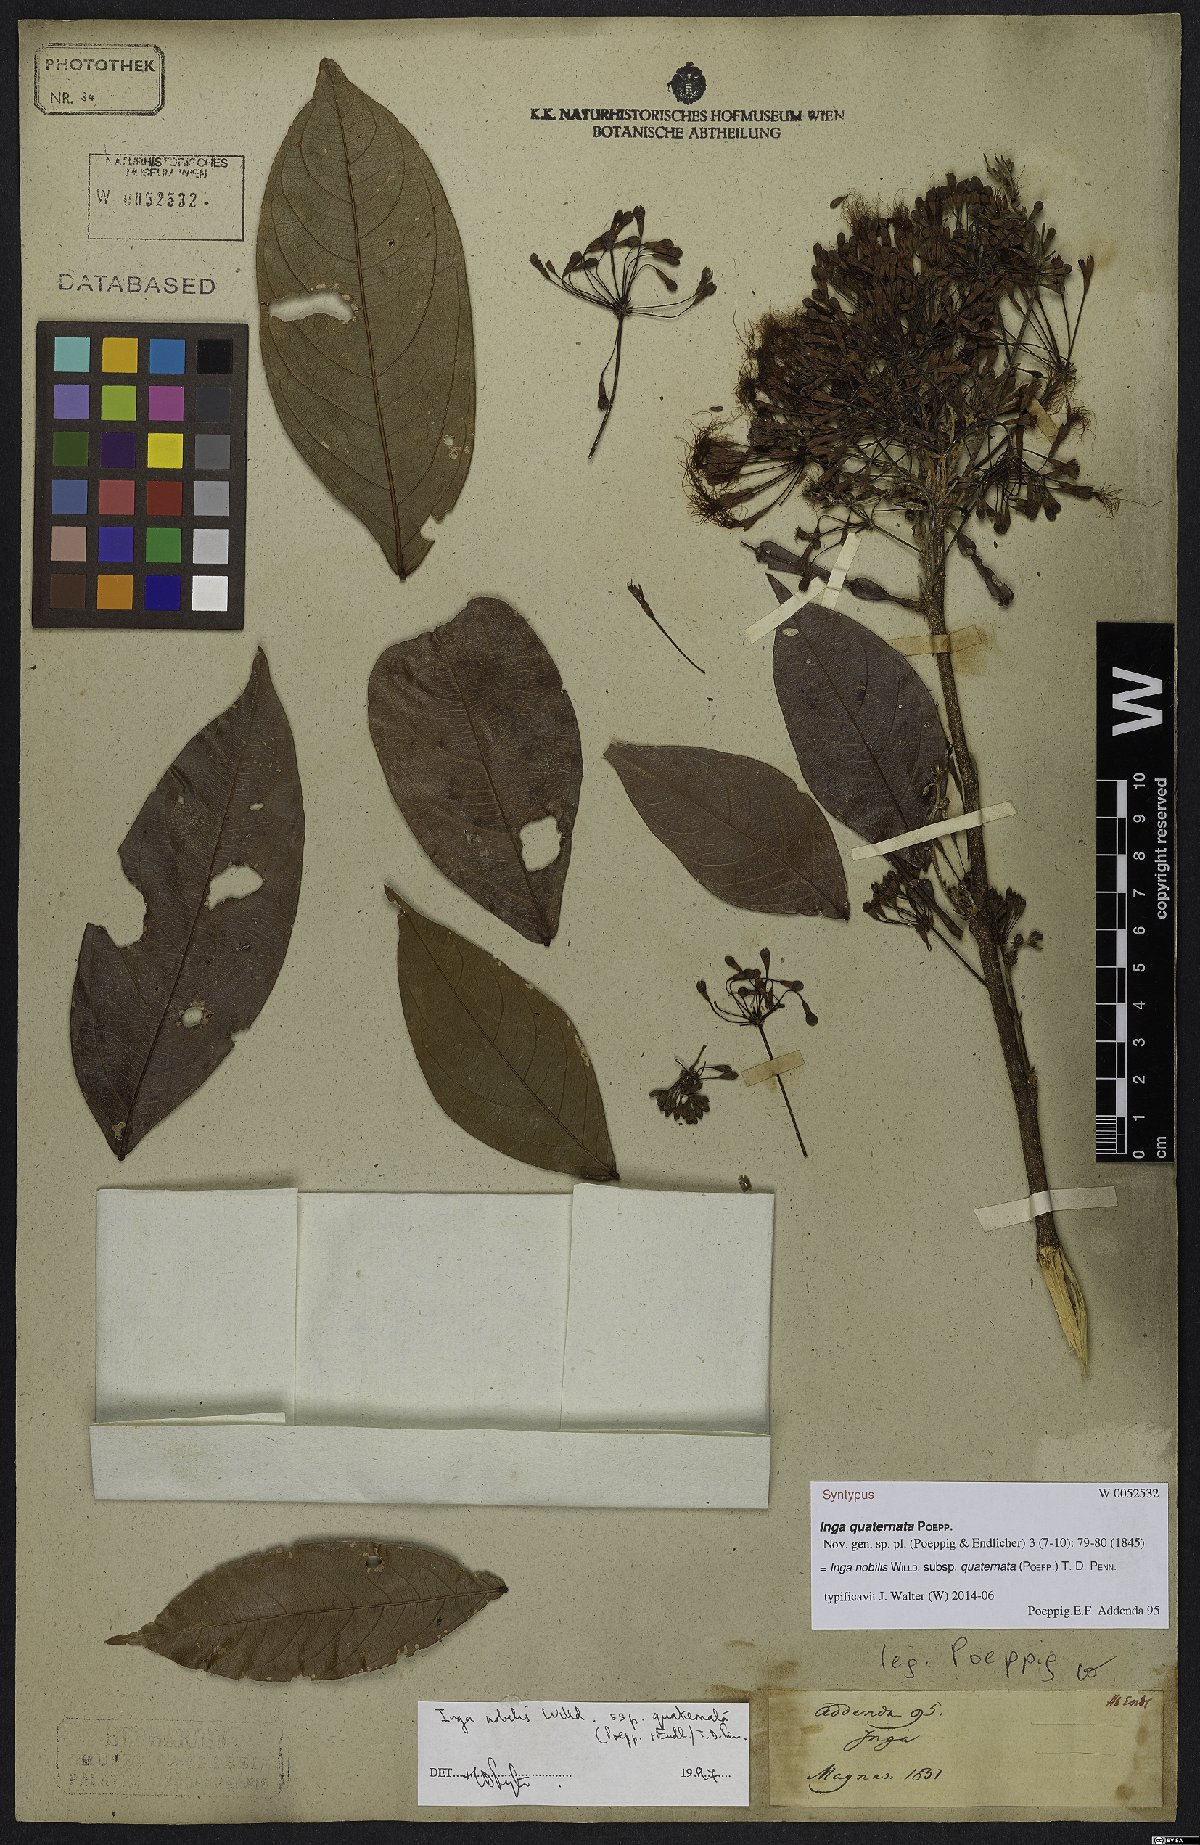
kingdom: Plantae
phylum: Tracheophyta
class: Magnoliopsida
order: Fabales
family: Fabaceae
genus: Inga
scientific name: Inga nobilis
